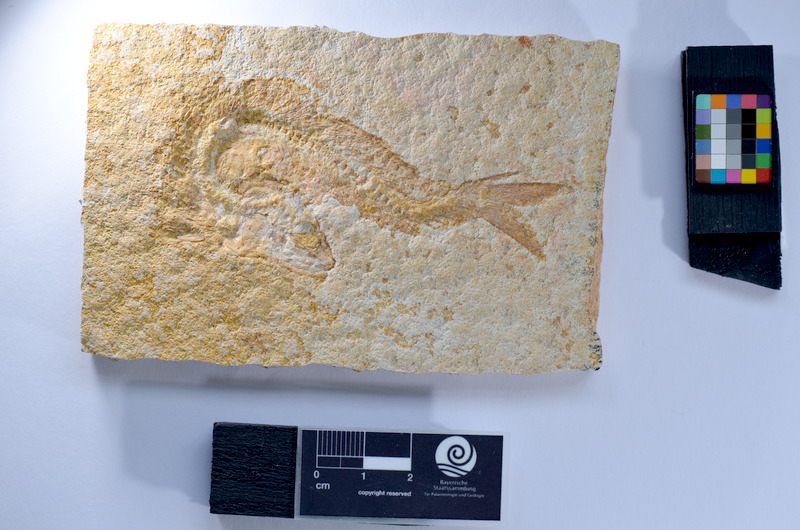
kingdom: Animalia
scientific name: Animalia
